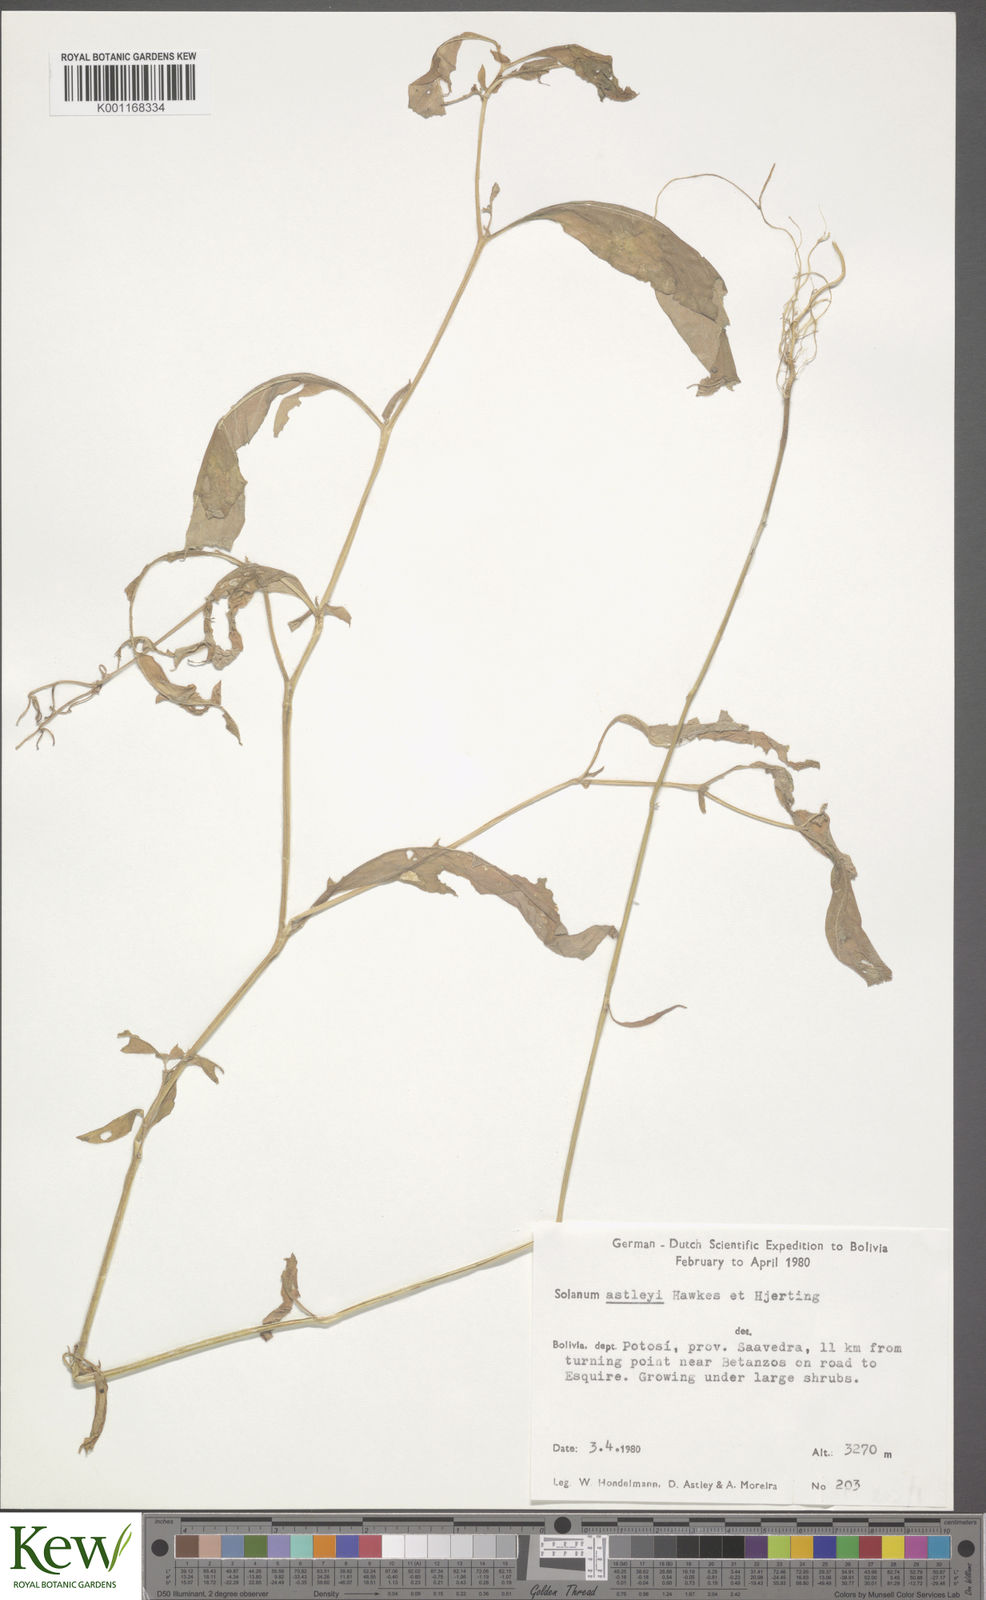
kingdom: Plantae
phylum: Tracheophyta
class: Magnoliopsida
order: Solanales
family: Solanaceae
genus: Solanum
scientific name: Solanum boliviense
